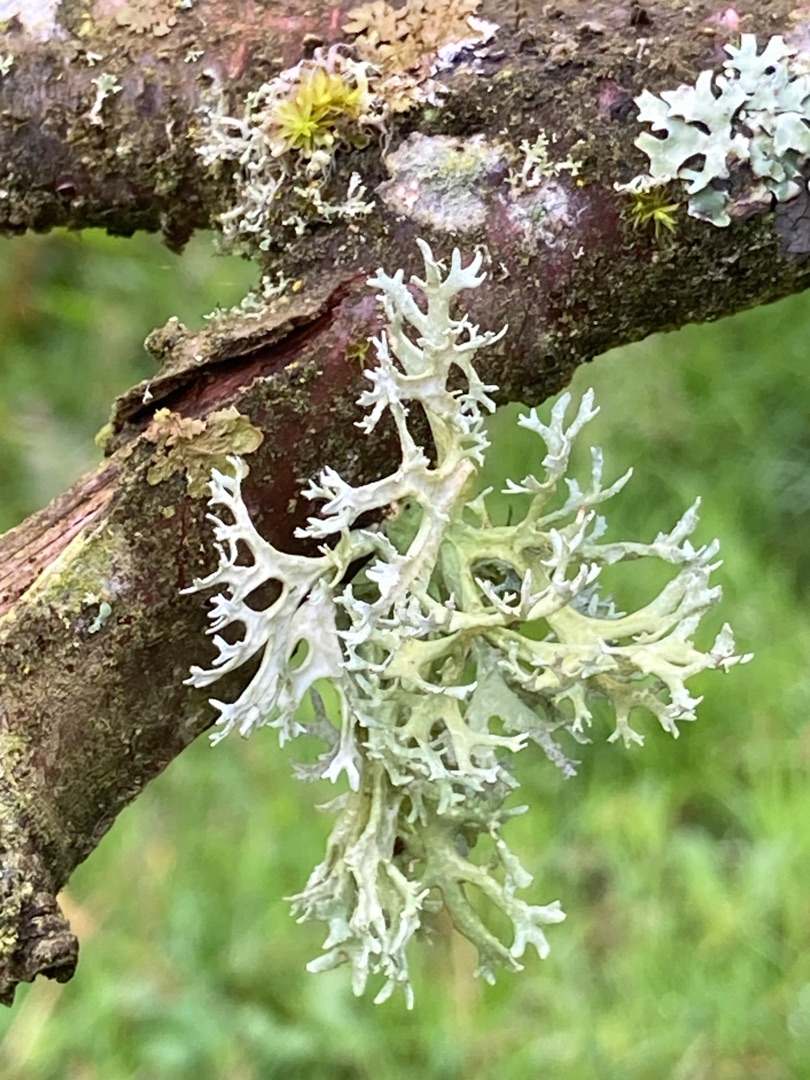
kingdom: Fungi
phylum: Ascomycota
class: Lecanoromycetes
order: Lecanorales
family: Parmeliaceae
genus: Evernia
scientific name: Evernia prunastri
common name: Almindelig slåenlav
